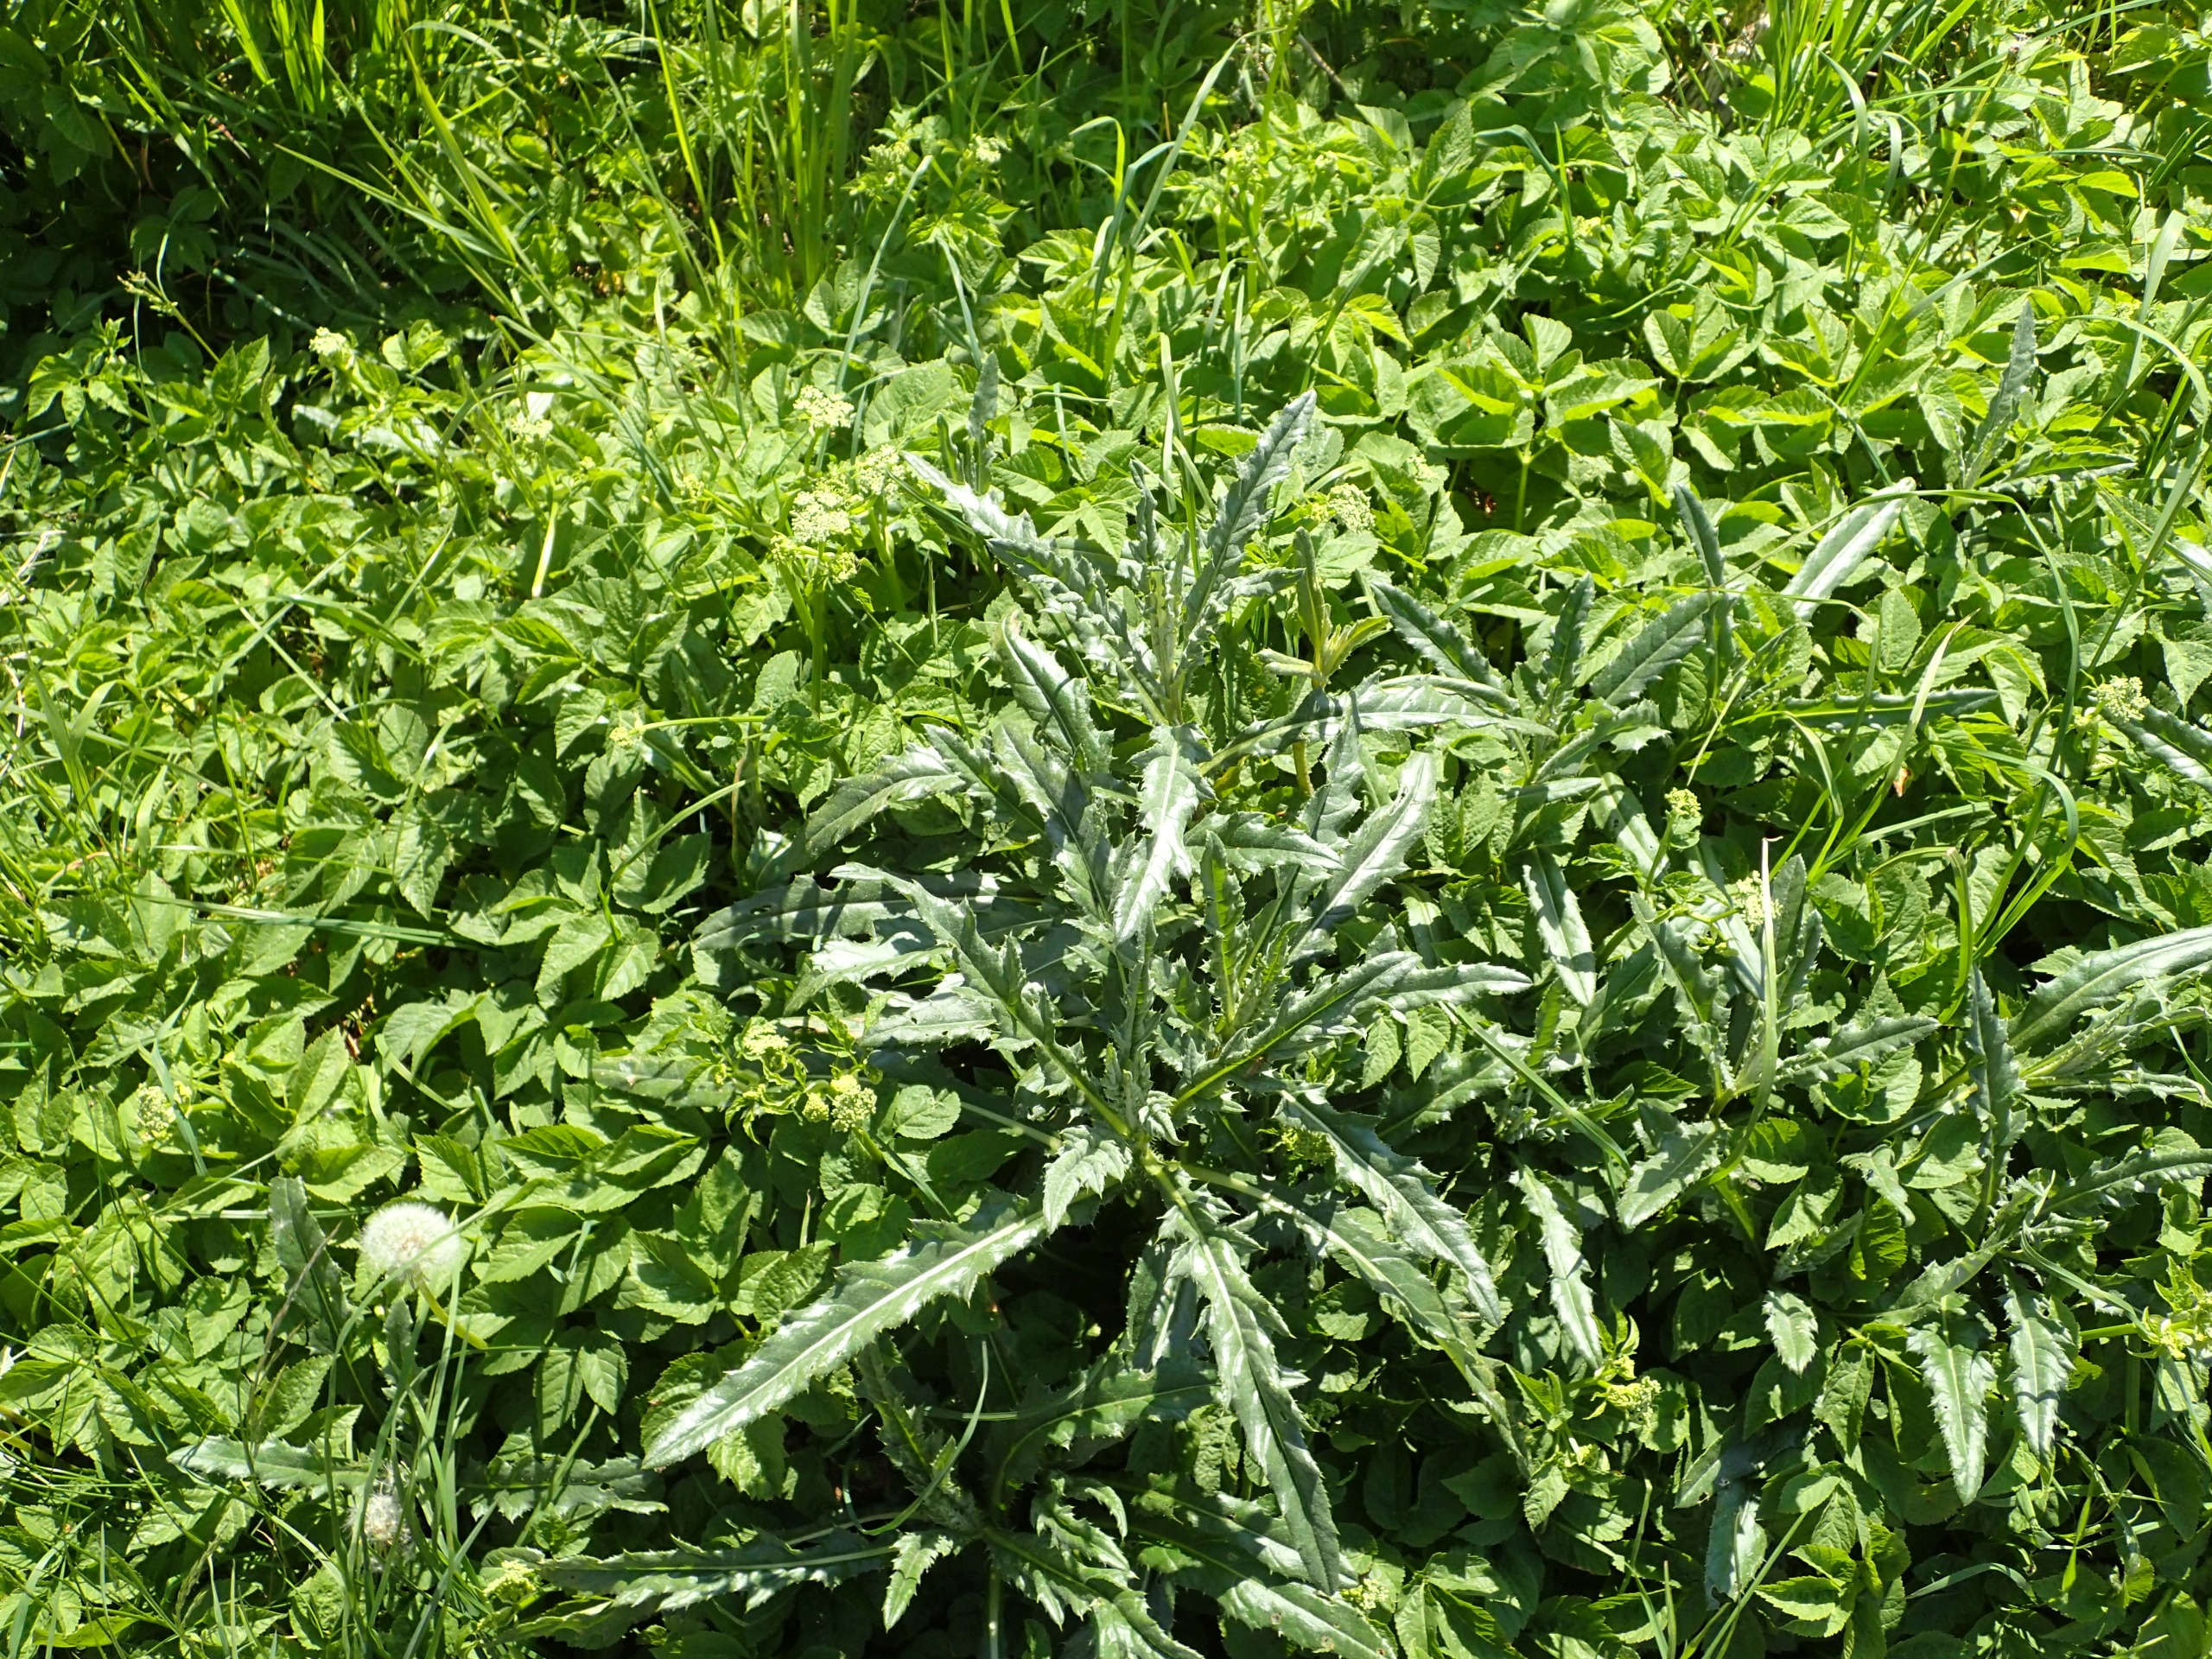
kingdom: Plantae
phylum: Tracheophyta
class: Magnoliopsida
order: Asterales
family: Asteraceae
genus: Cirsium
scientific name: Cirsium arvense
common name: Ager-tidsel
